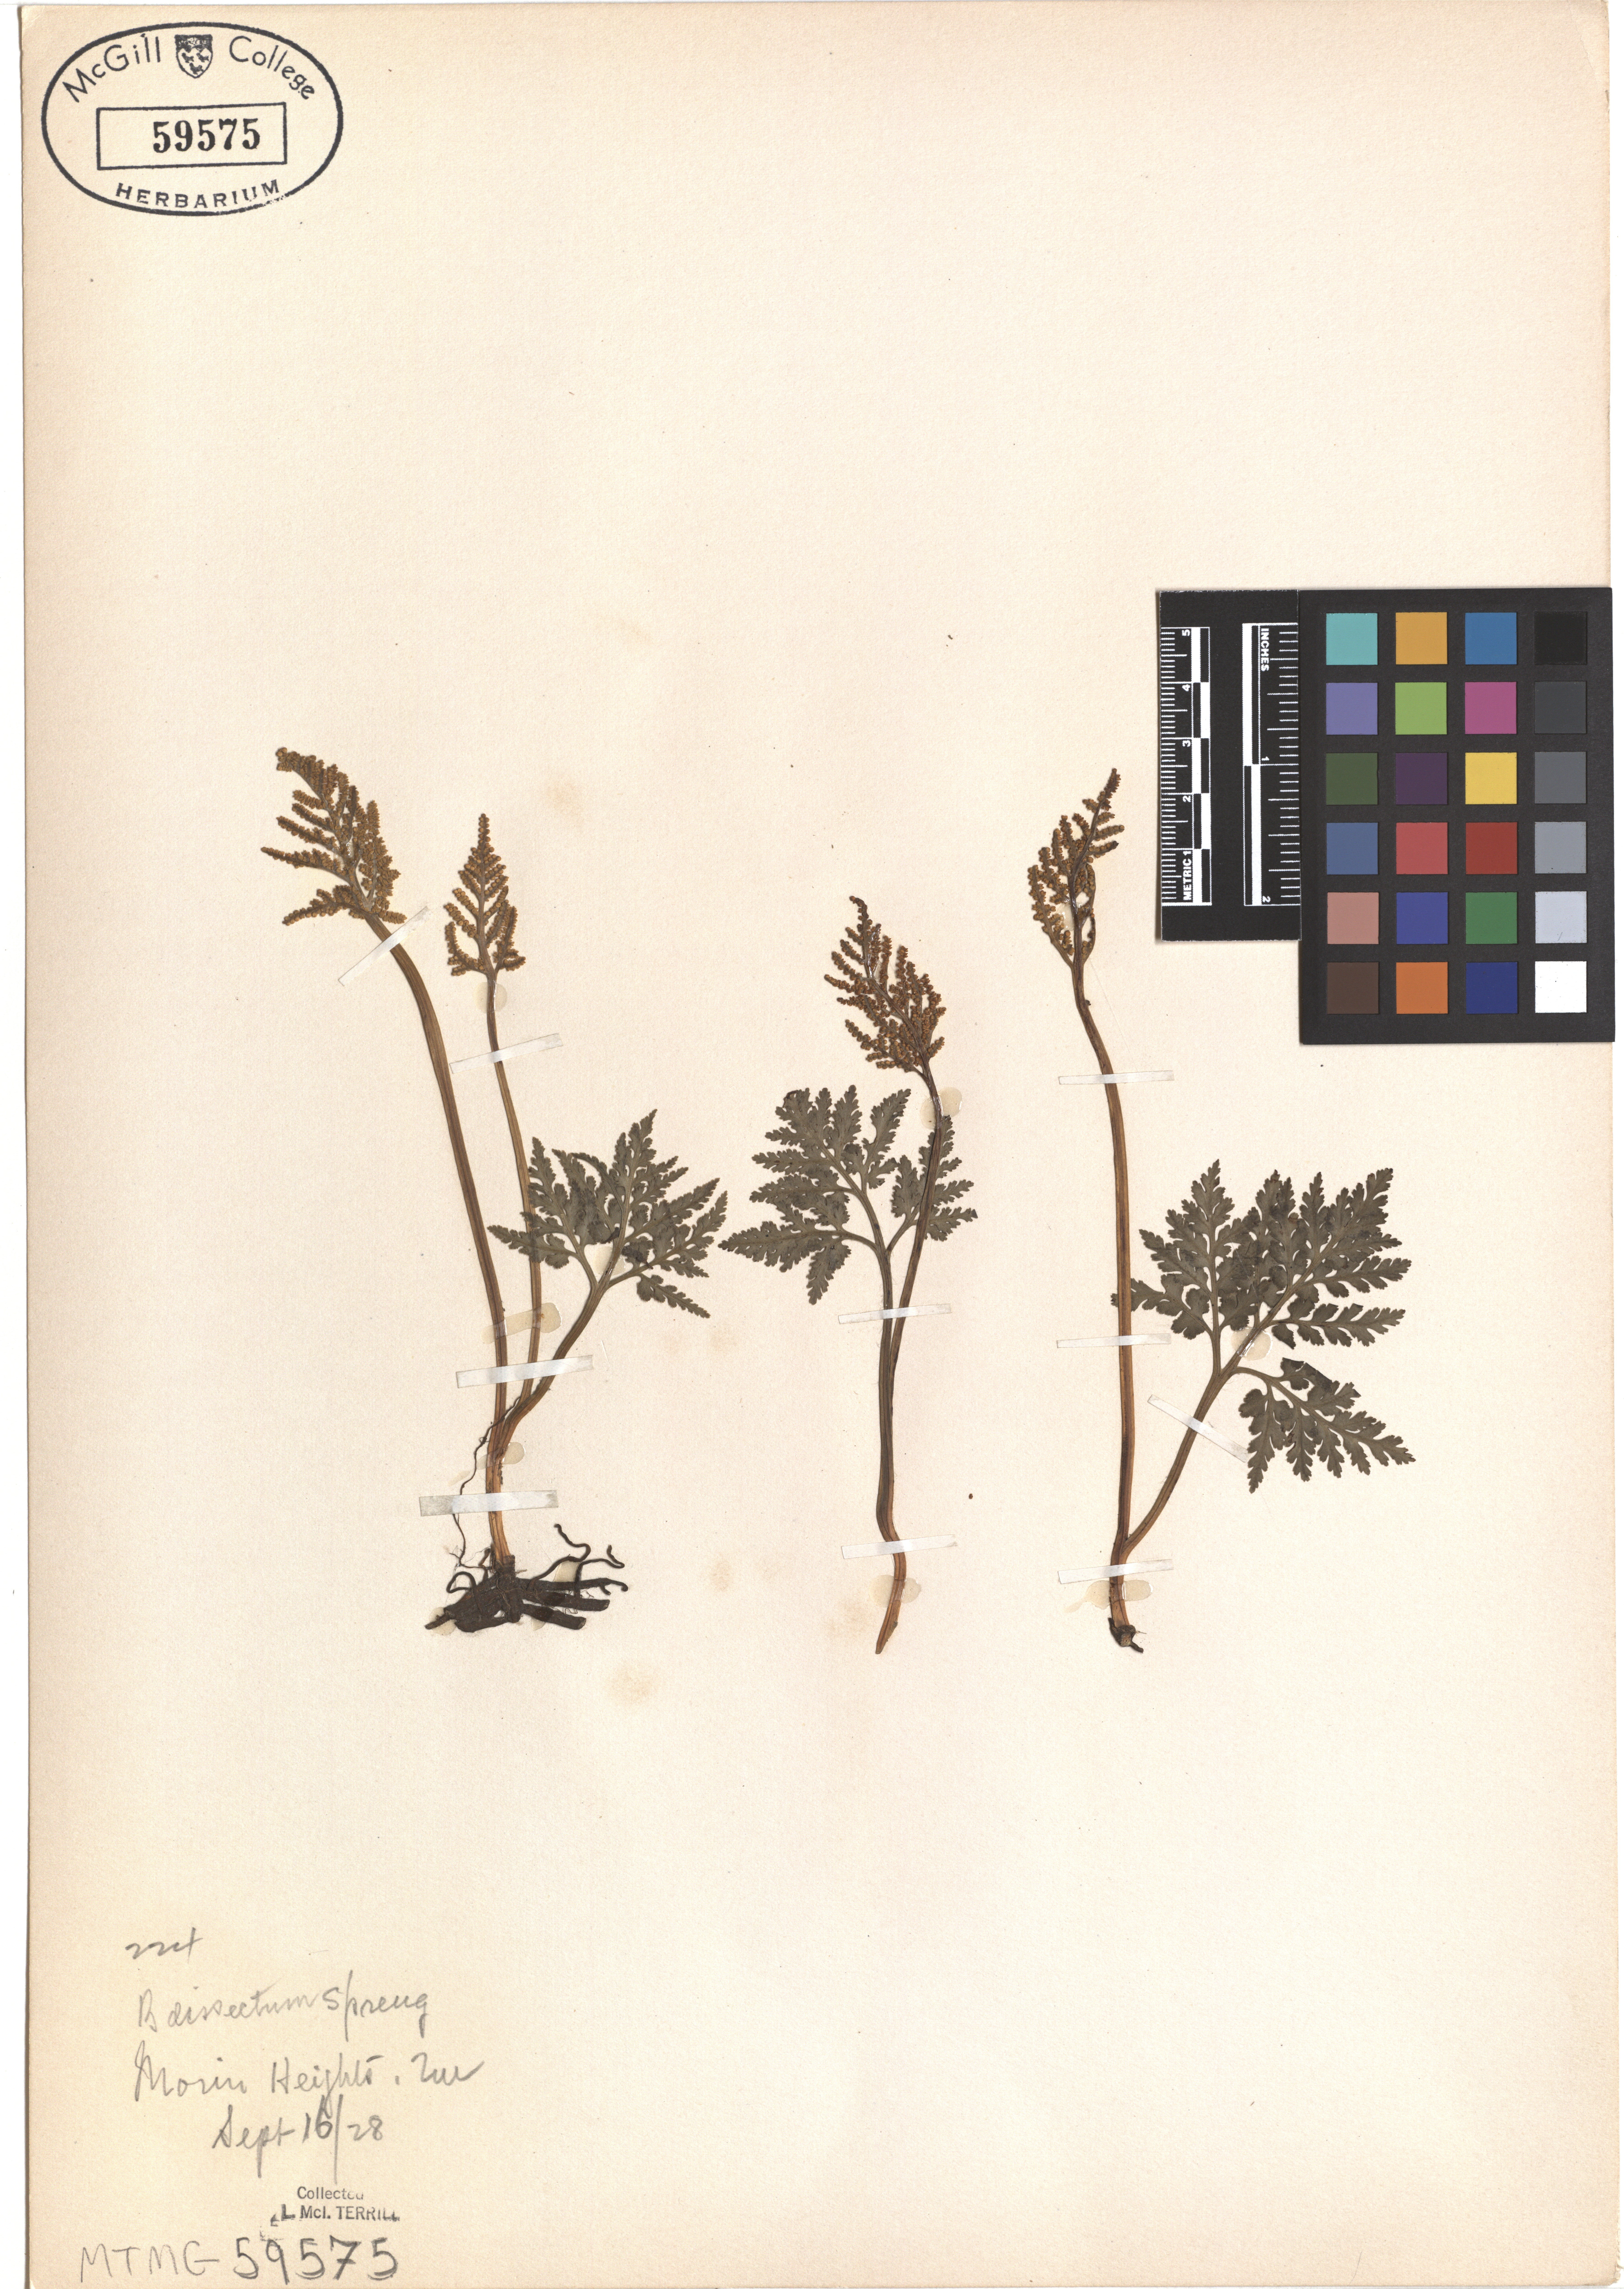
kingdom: Plantae
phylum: Tracheophyta
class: Polypodiopsida
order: Ophioglossales
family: Ophioglossaceae
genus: Sceptridium
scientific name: Sceptridium dissectum
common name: Cut-leaved grapefern
